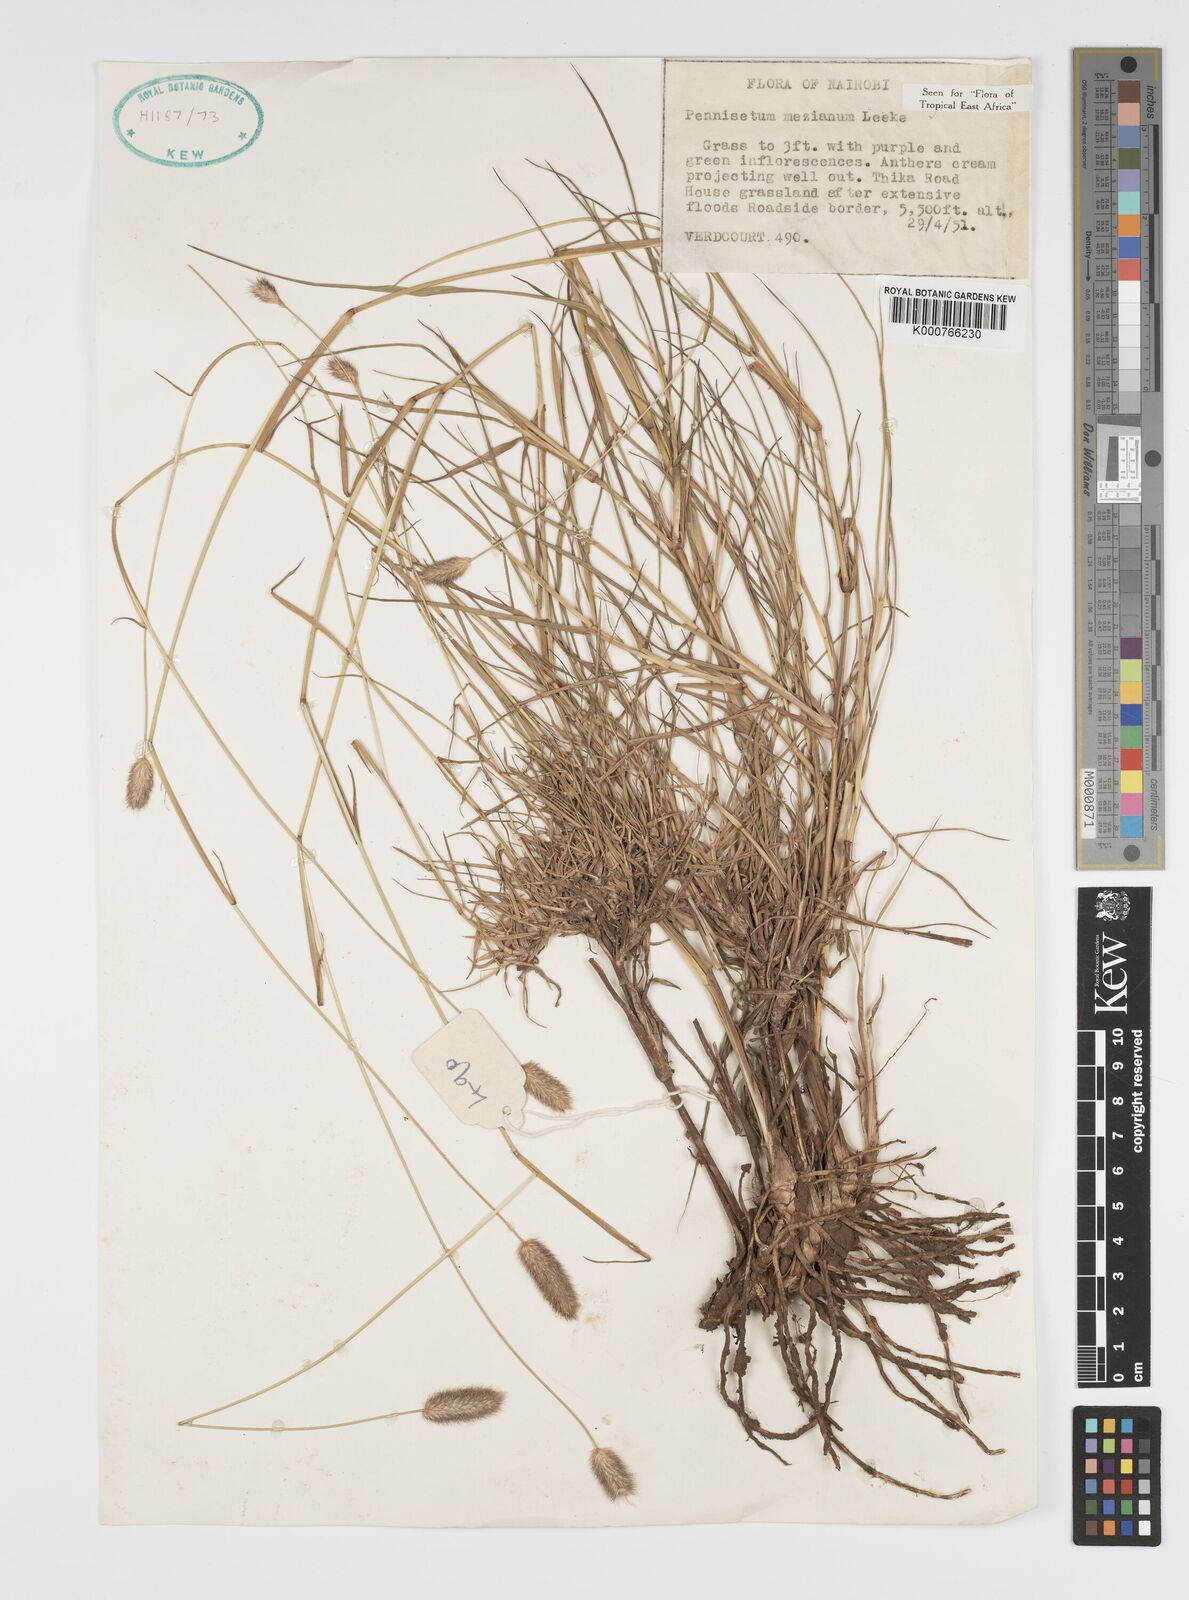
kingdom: Plantae
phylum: Tracheophyta
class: Liliopsida
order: Poales
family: Poaceae
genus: Cenchrus
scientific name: Cenchrus mezianus
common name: Bamboo grass
